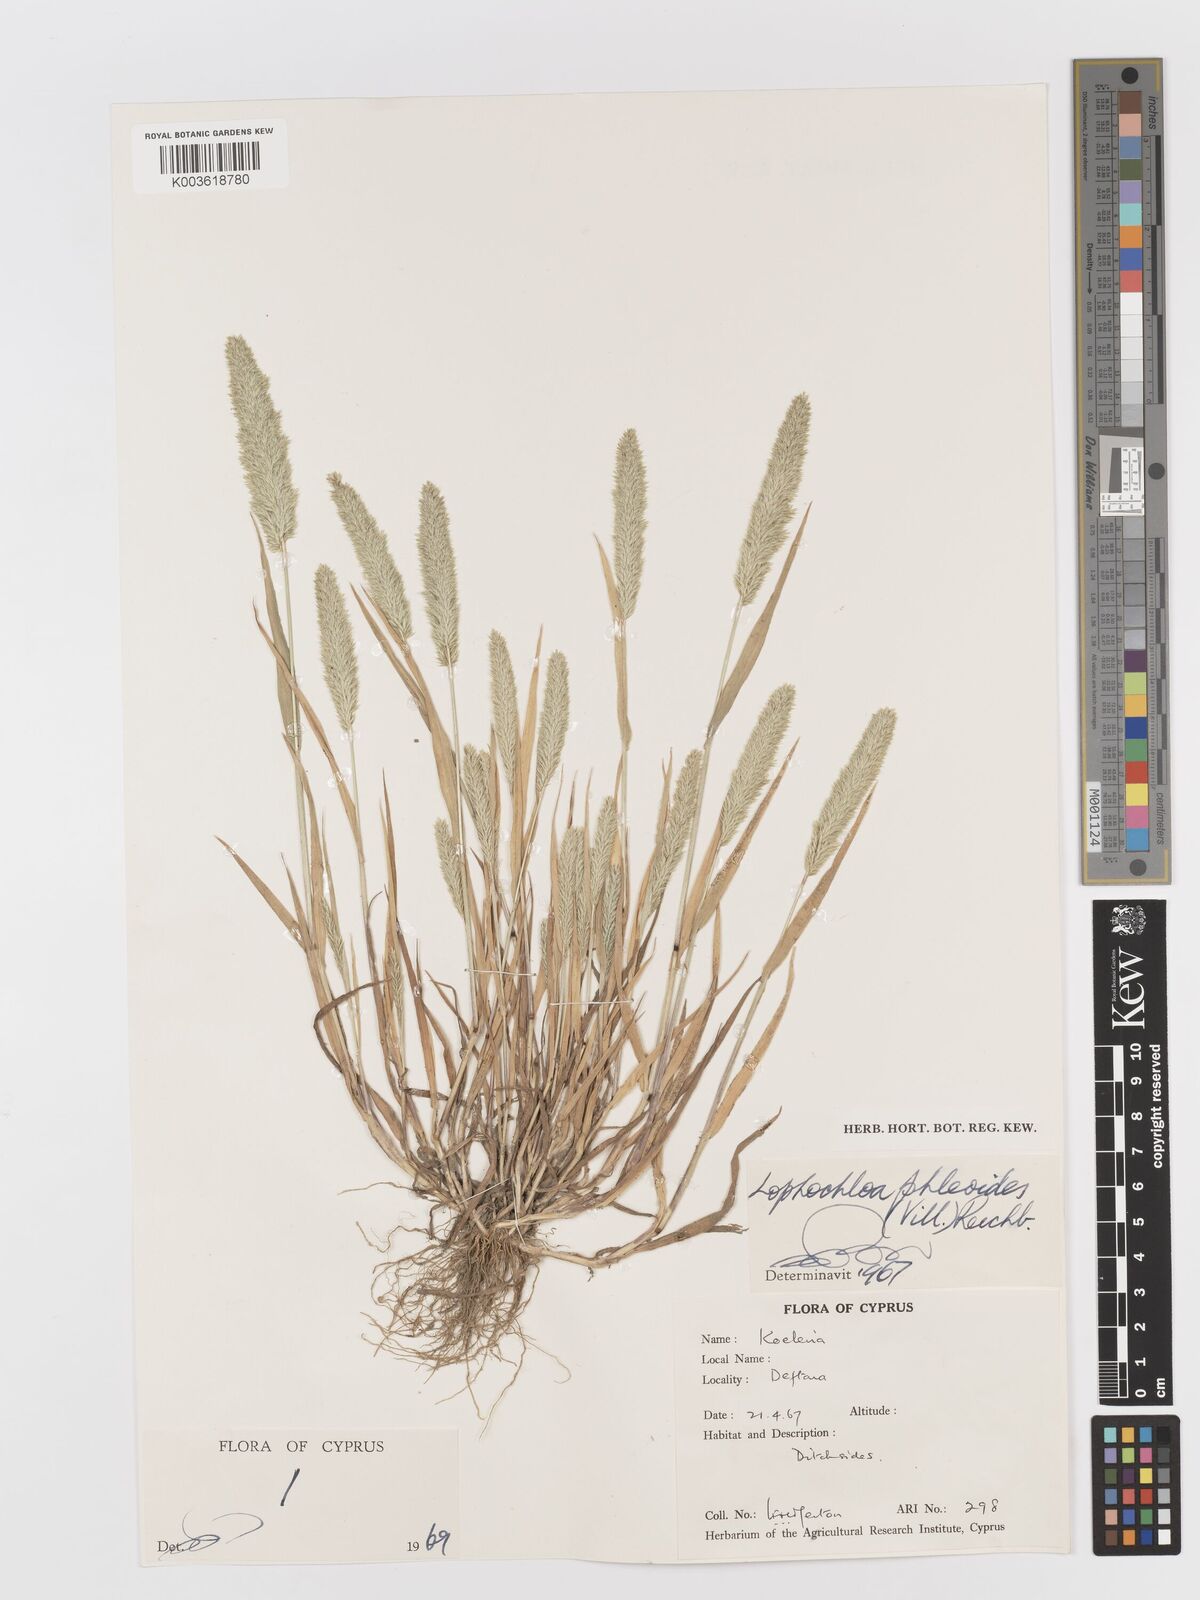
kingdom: Plantae
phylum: Tracheophyta
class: Liliopsida
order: Poales
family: Poaceae
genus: Rostraria
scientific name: Rostraria cristata
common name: Mediterranean hair-grass
